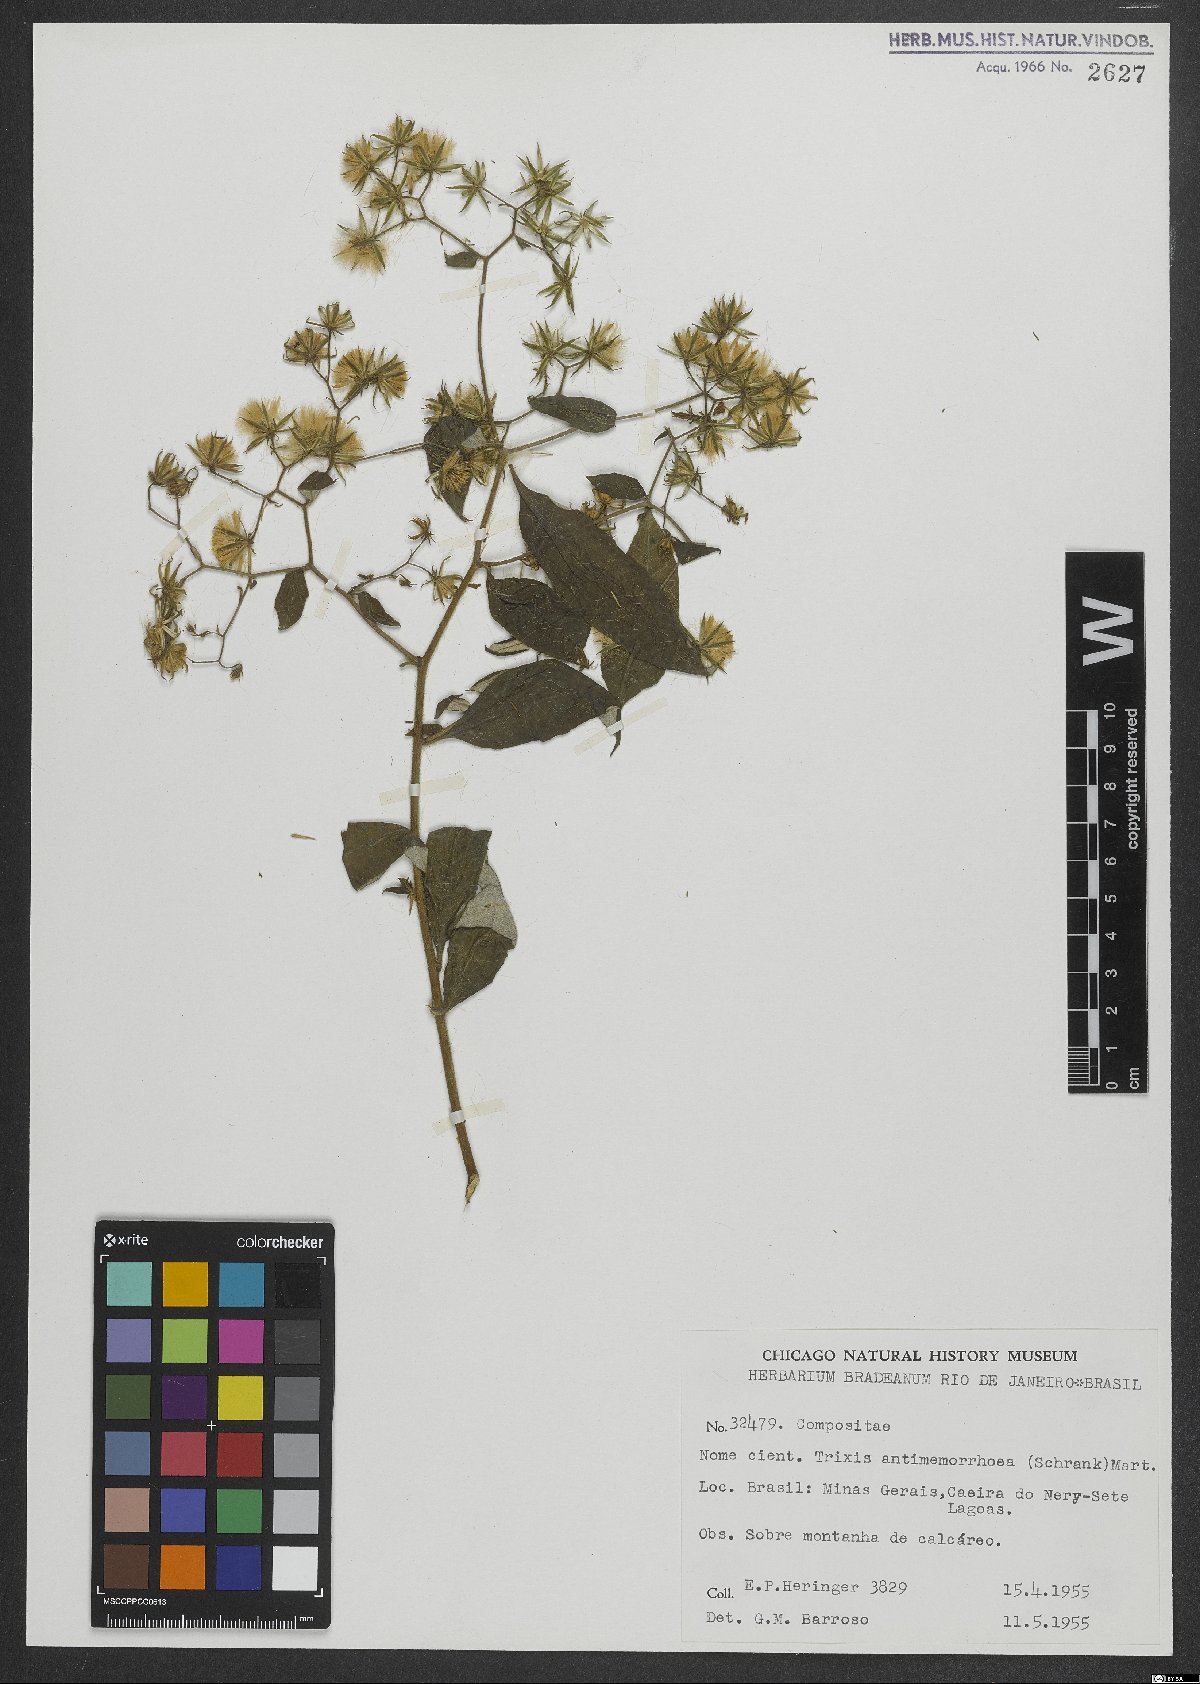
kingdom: Plantae
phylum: Tracheophyta
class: Magnoliopsida
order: Asterales
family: Asteraceae
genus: Trixis
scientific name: Trixis divaricata
